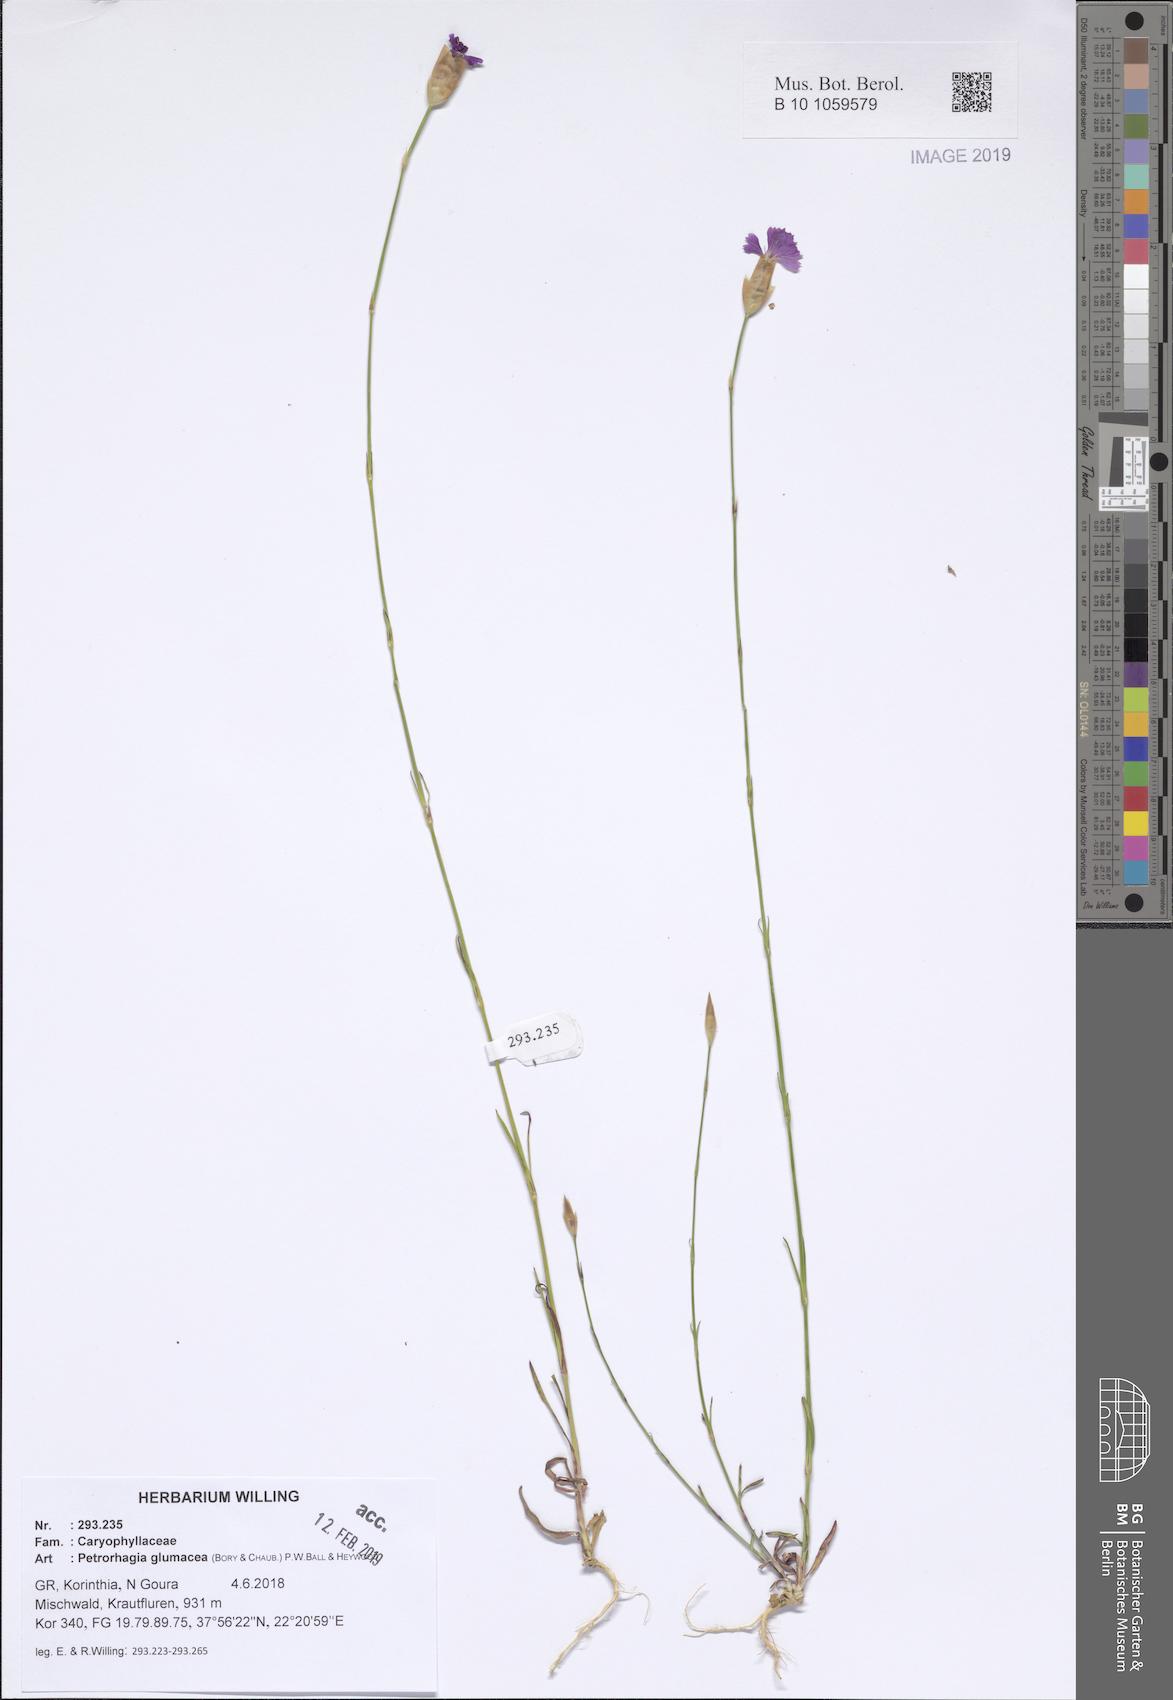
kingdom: Plantae
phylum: Tracheophyta
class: Magnoliopsida
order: Caryophyllales
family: Caryophyllaceae
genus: Petrorhagia
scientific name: Petrorhagia glumacea
